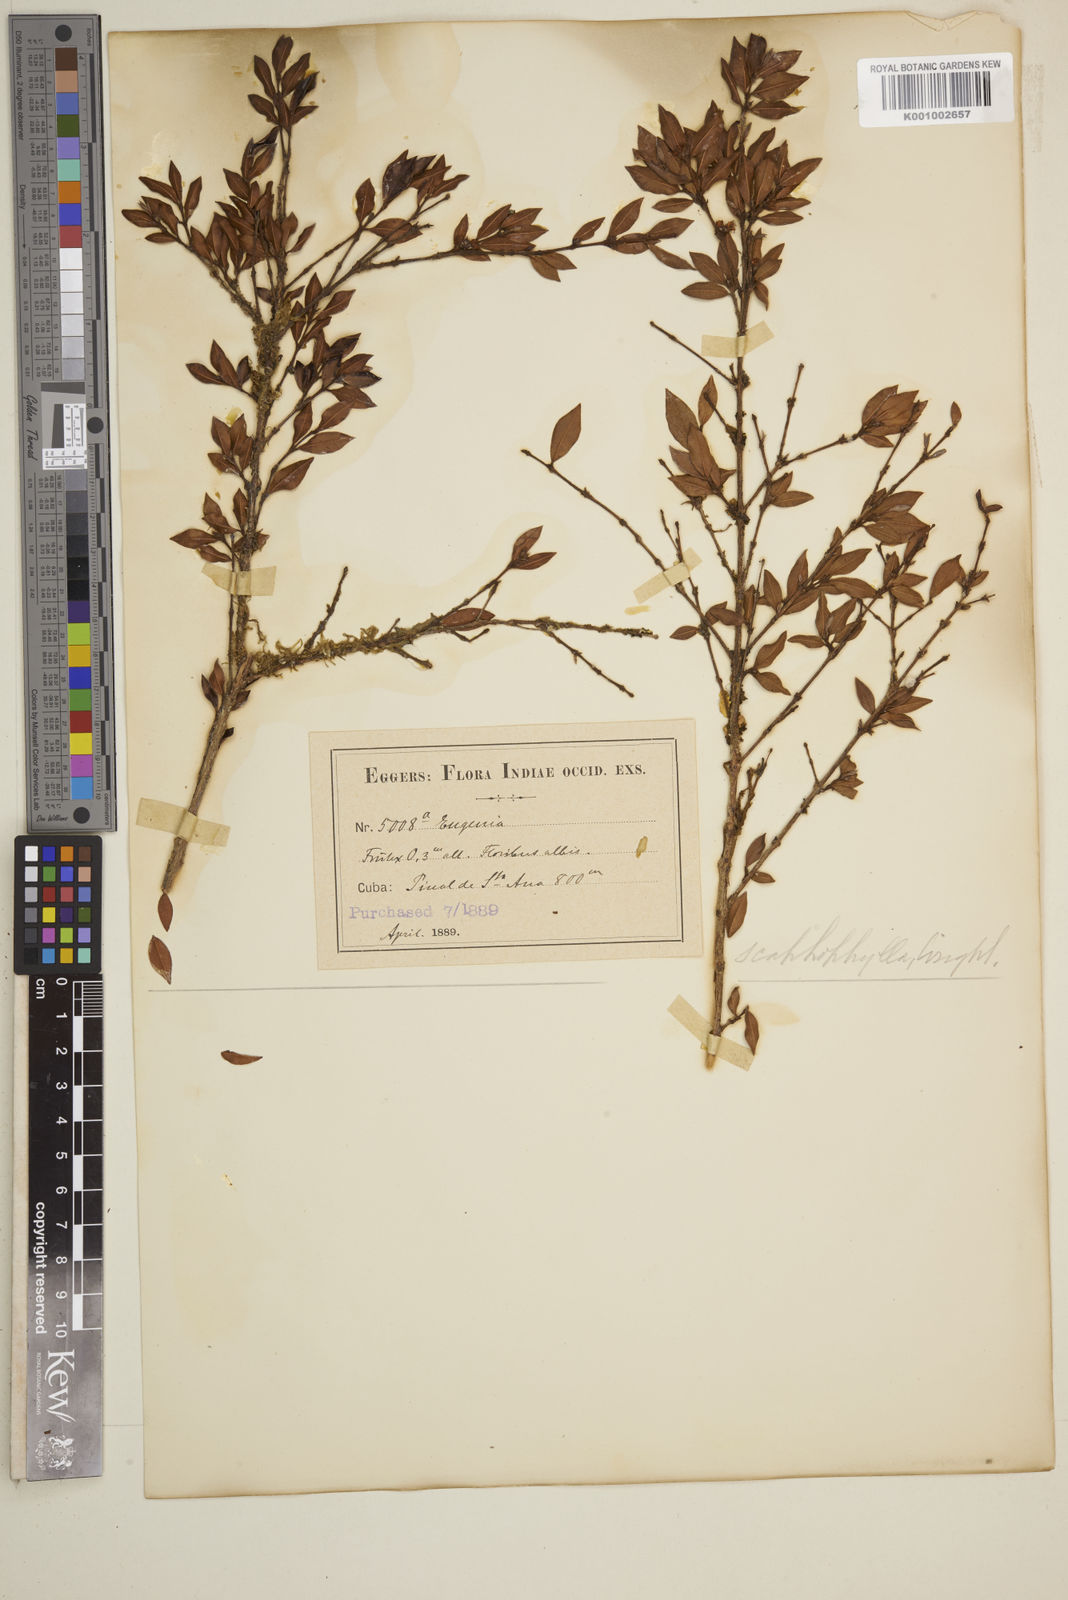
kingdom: Plantae
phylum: Tracheophyta
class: Magnoliopsida
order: Myrtales
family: Myrtaceae
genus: Eugenia
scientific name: Eugenia scaphephylla
